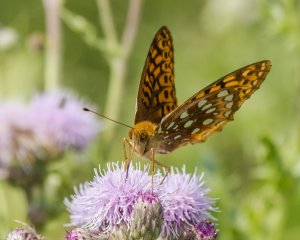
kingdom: Animalia
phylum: Arthropoda
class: Insecta
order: Lepidoptera
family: Nymphalidae
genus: Speyeria
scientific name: Speyeria cybele
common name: Great Spangled Fritillary
